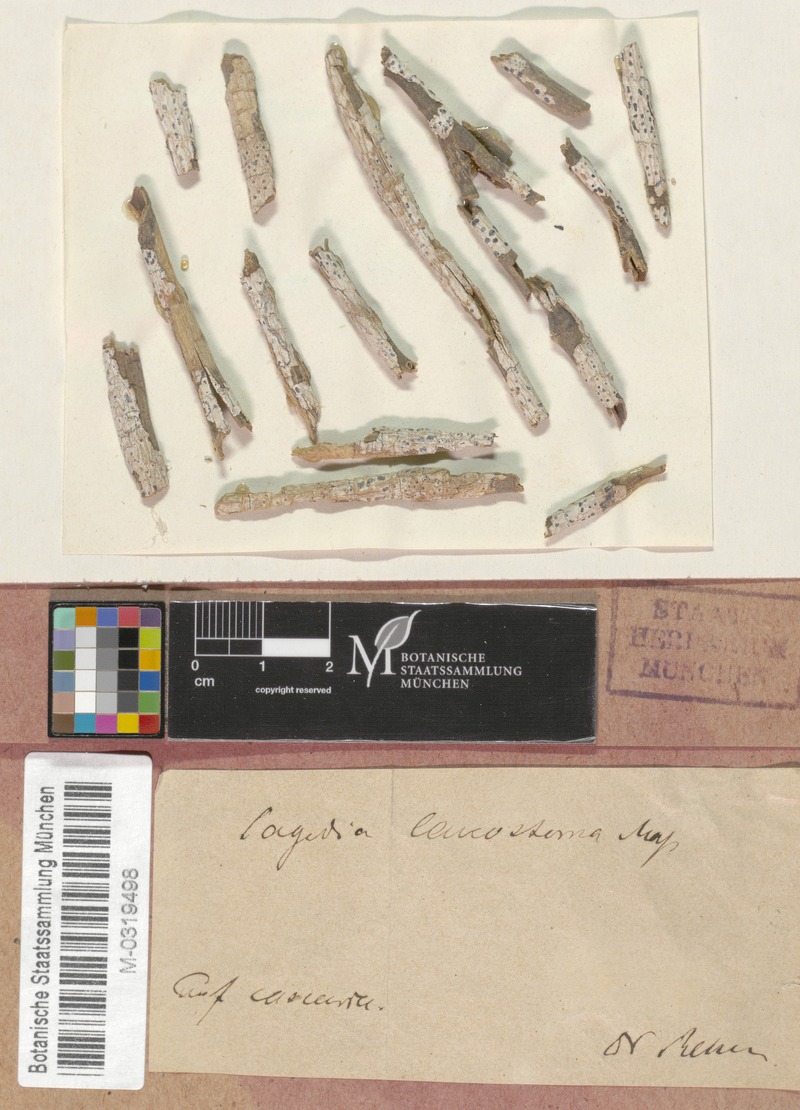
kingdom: Fungi
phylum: Ascomycota
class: Lecanoromycetes
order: Pertusariales
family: Pertusariaceae
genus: Porina
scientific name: Porina
